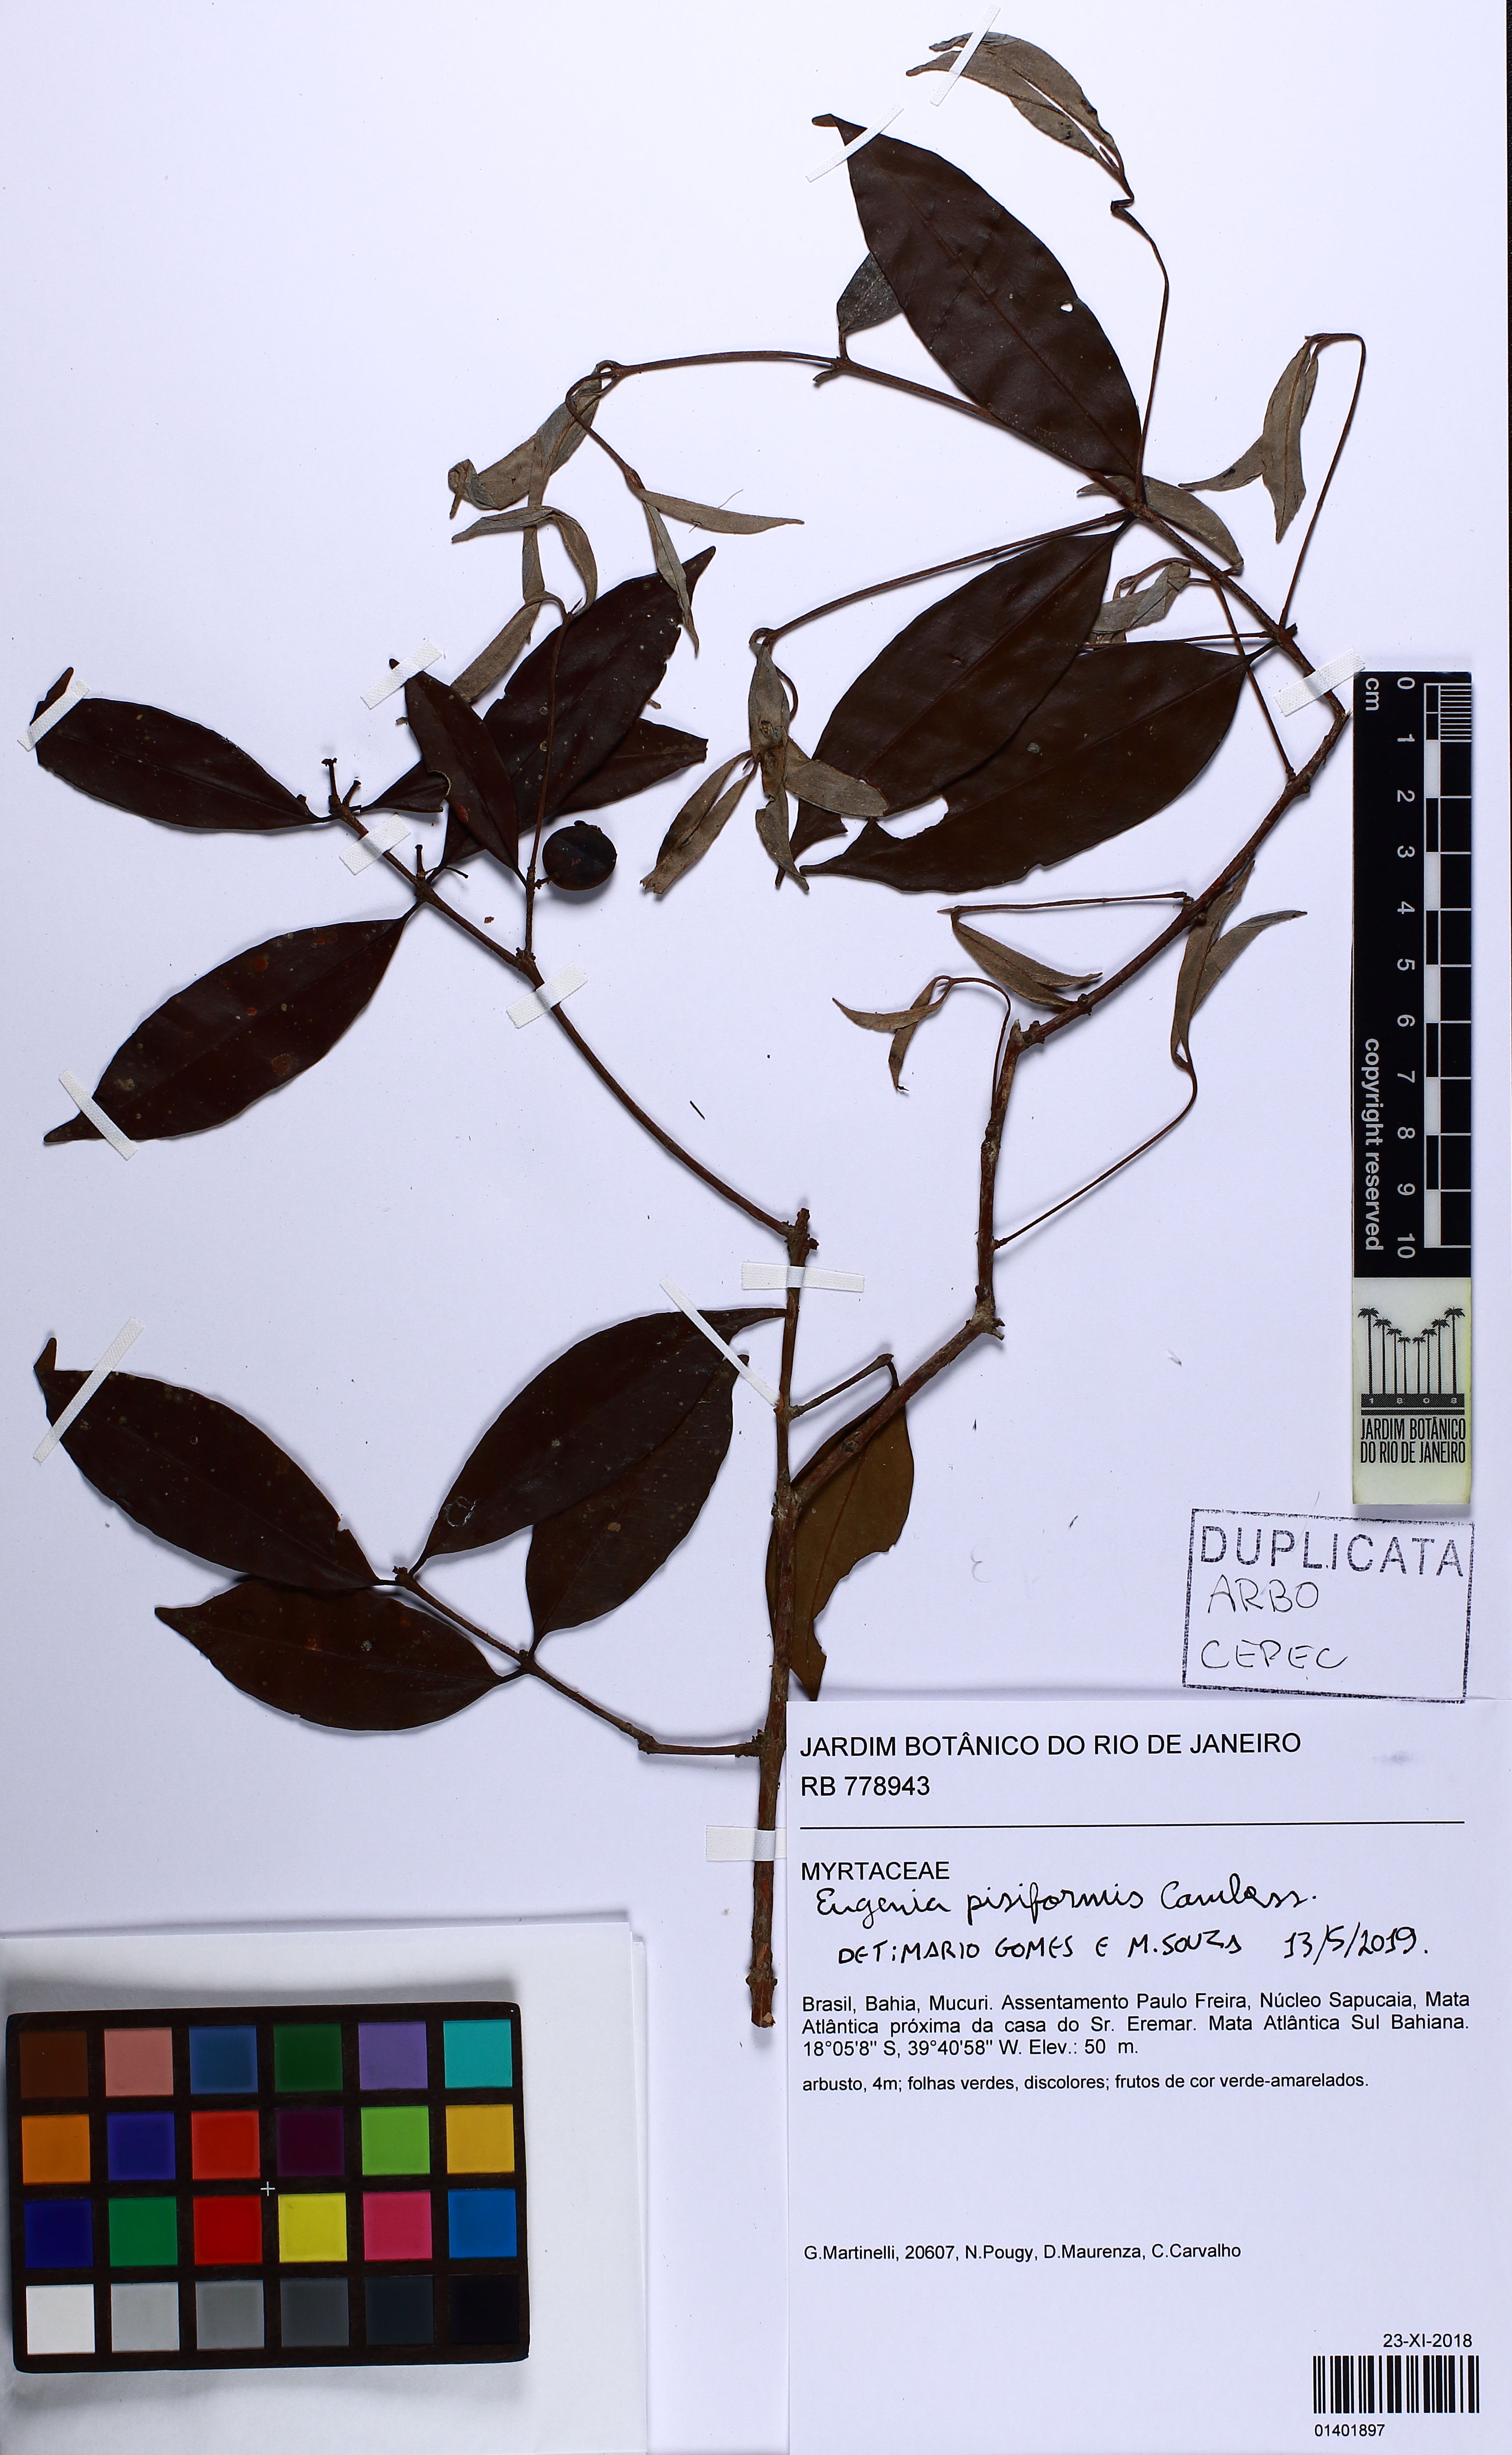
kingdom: Plantae
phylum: Tracheophyta
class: Magnoliopsida
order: Myrtales
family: Myrtaceae
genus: Eugenia
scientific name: Eugenia pisiformis
